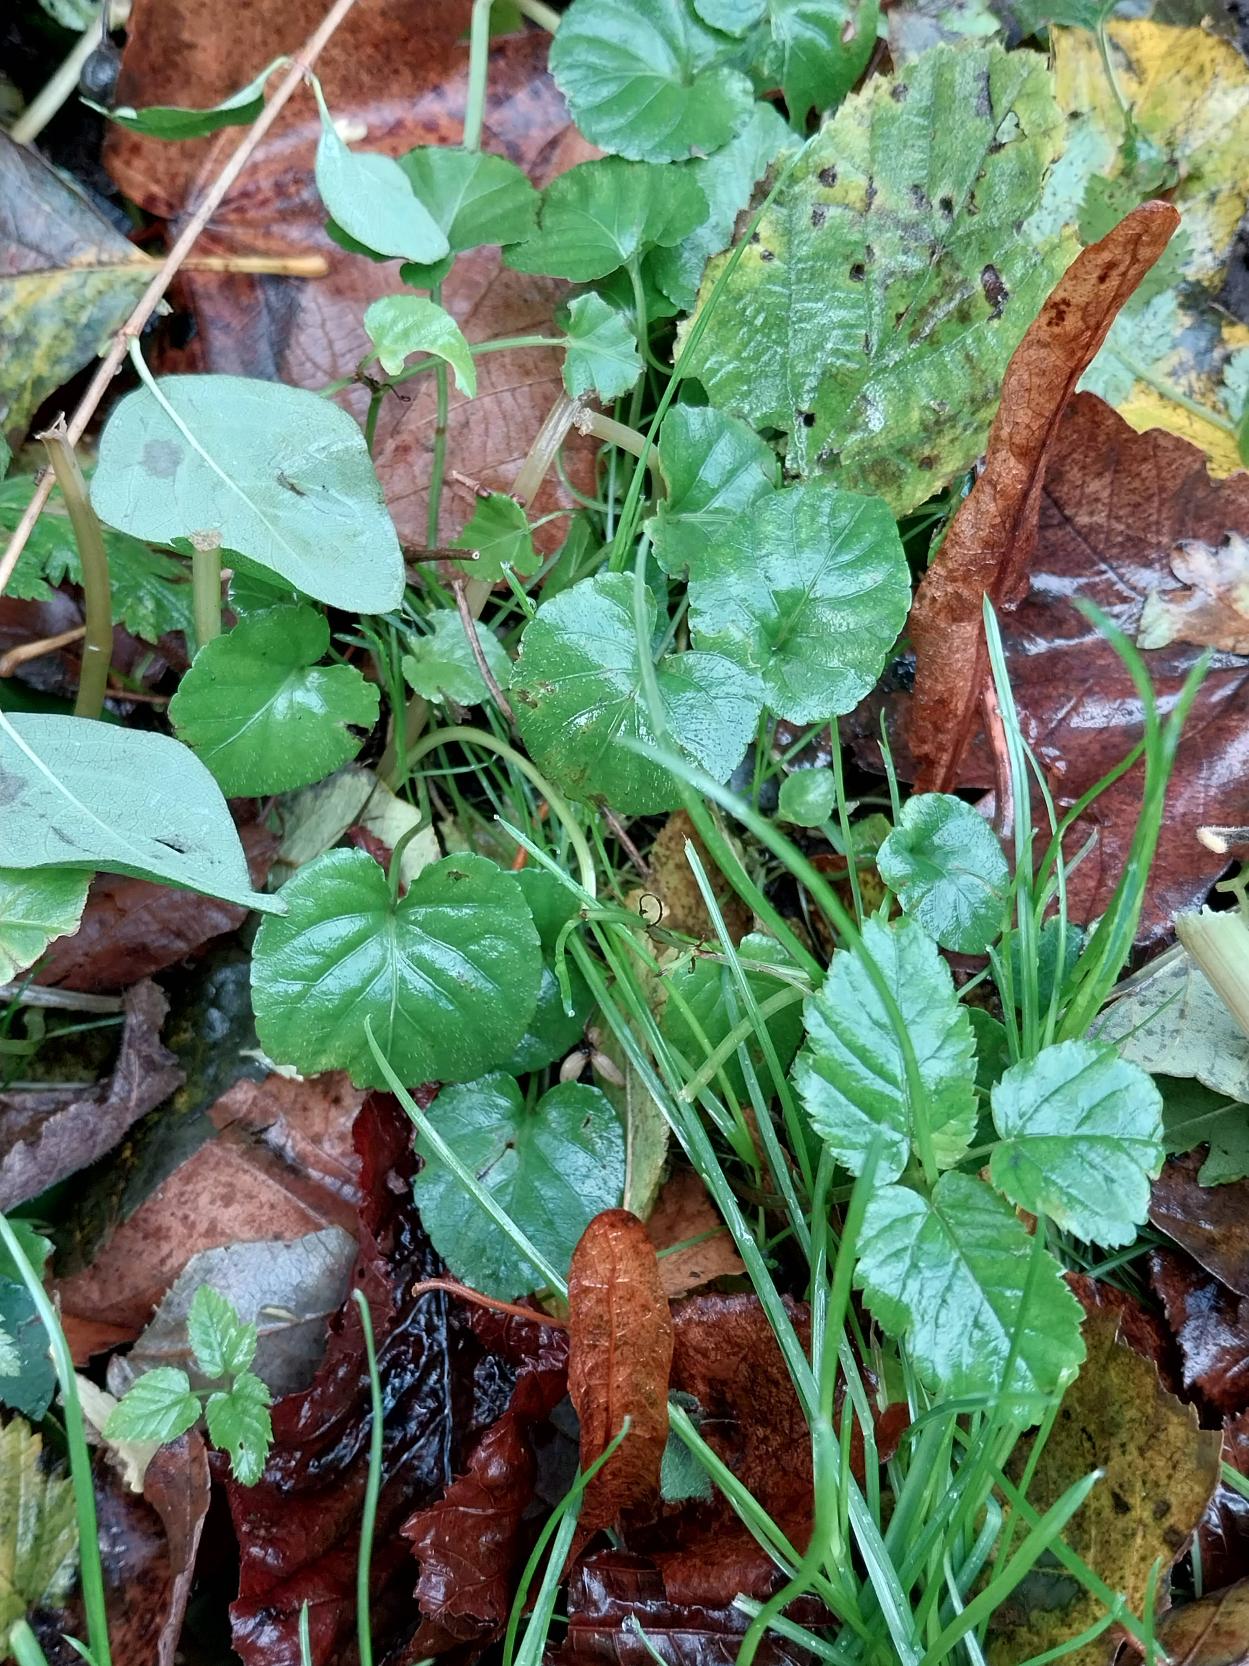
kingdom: Plantae
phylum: Tracheophyta
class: Magnoliopsida
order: Malpighiales
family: Violaceae
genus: Viola
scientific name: Viola odorata
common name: Marts-viol
